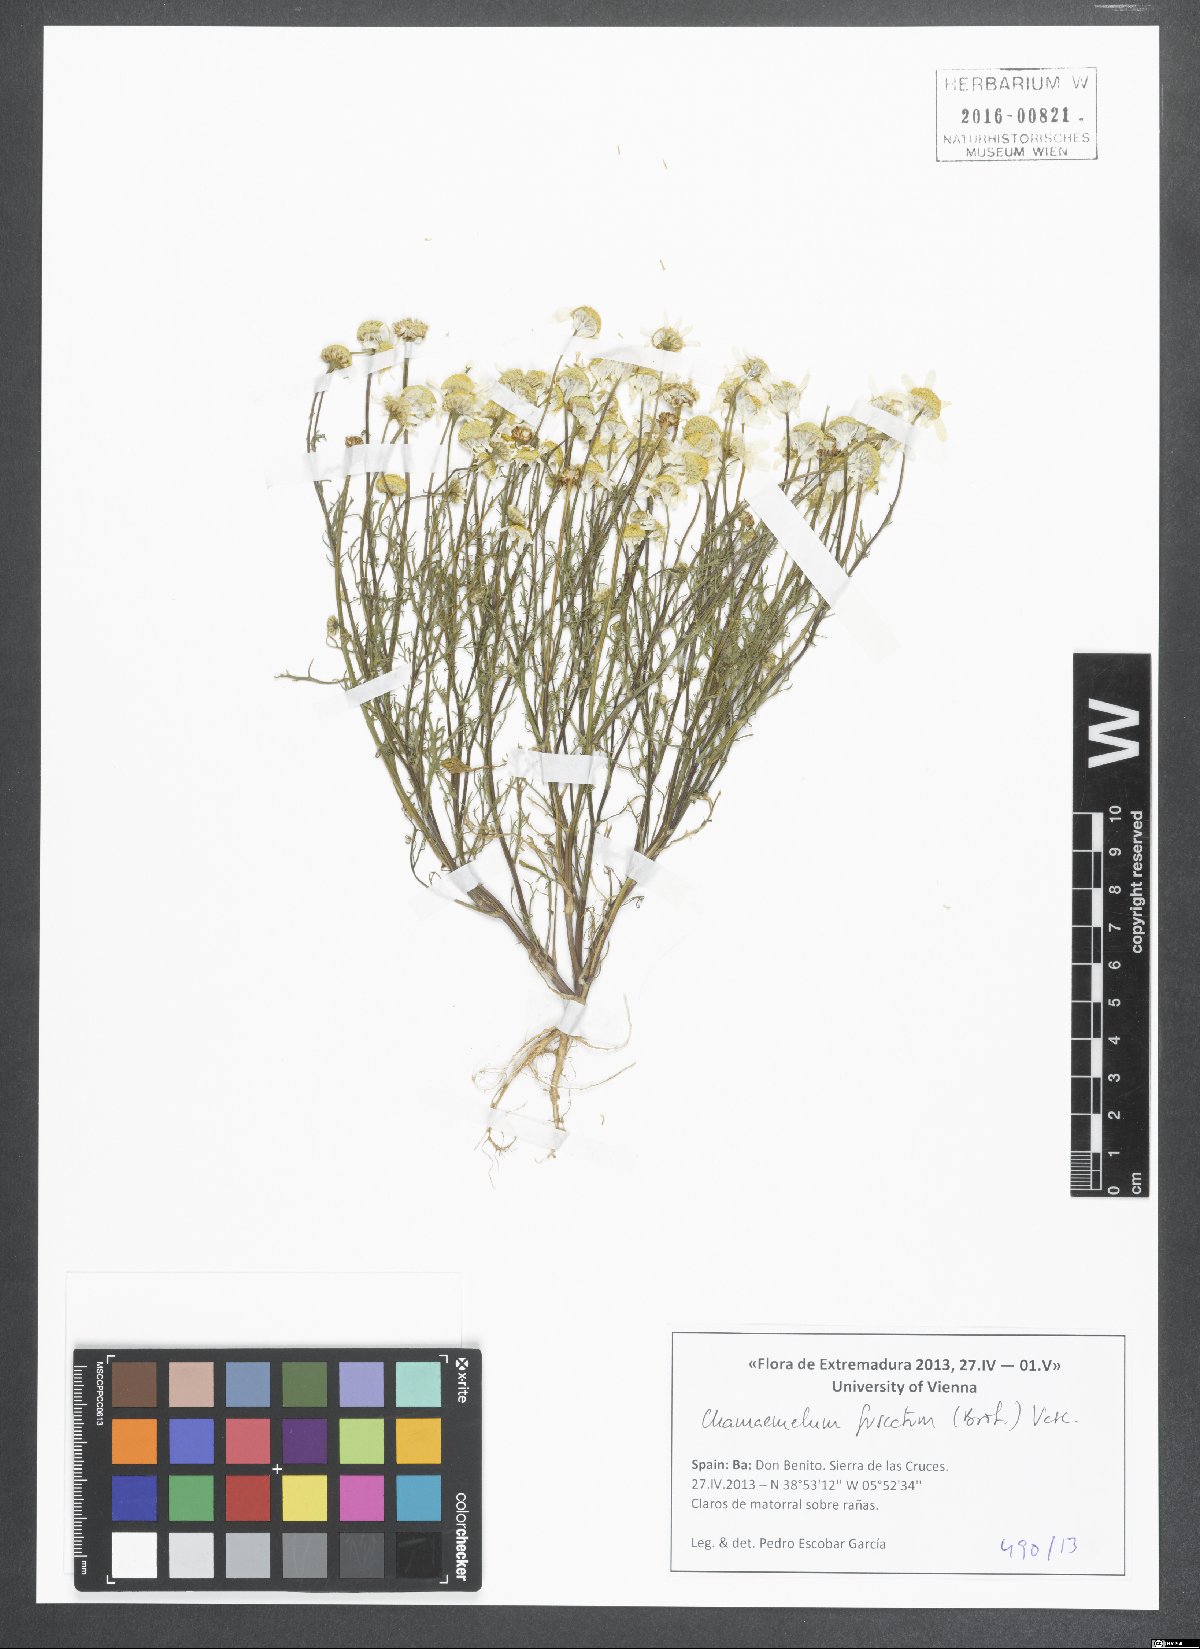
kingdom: Plantae
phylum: Tracheophyta
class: Magnoliopsida
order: Asterales
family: Asteraceae
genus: Chamaemelum
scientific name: Chamaemelum fuscatum
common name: Chamomile
